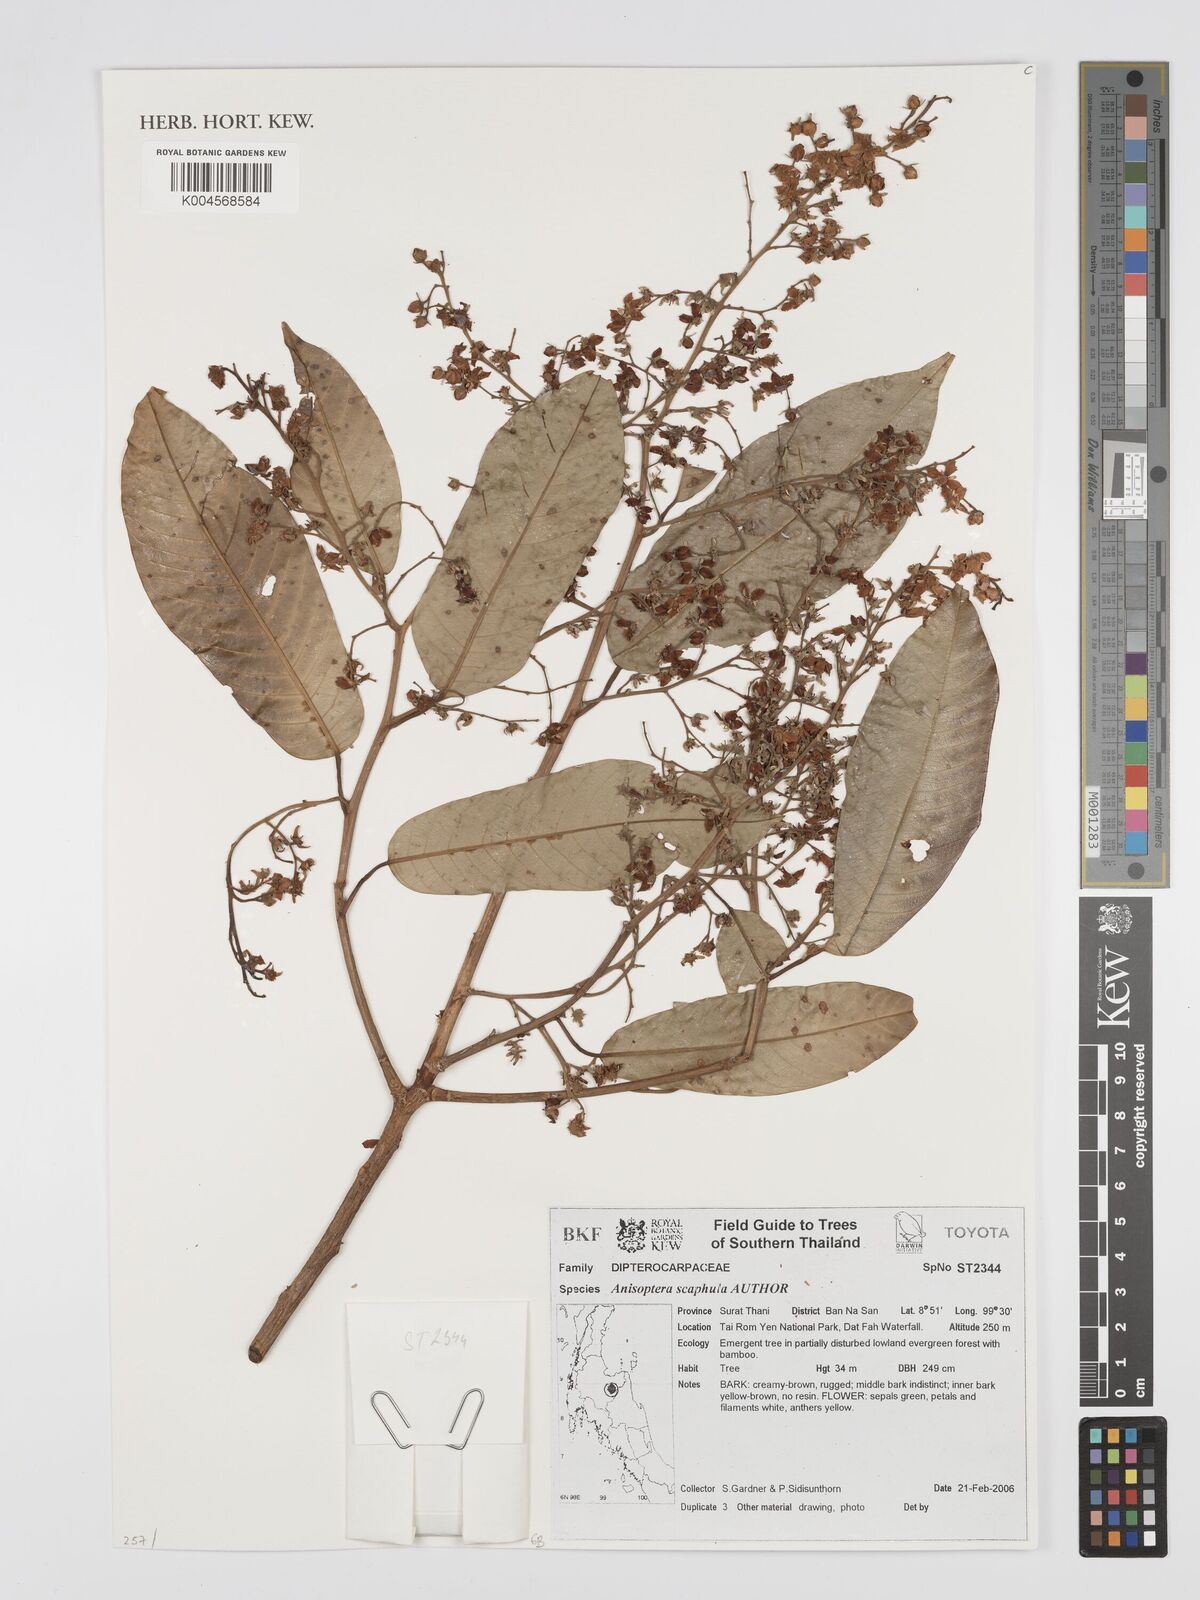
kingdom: Plantae
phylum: Tracheophyta
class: Magnoliopsida
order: Malvales
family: Dipterocarpaceae
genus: Anisoptera
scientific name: Anisoptera scaphula
